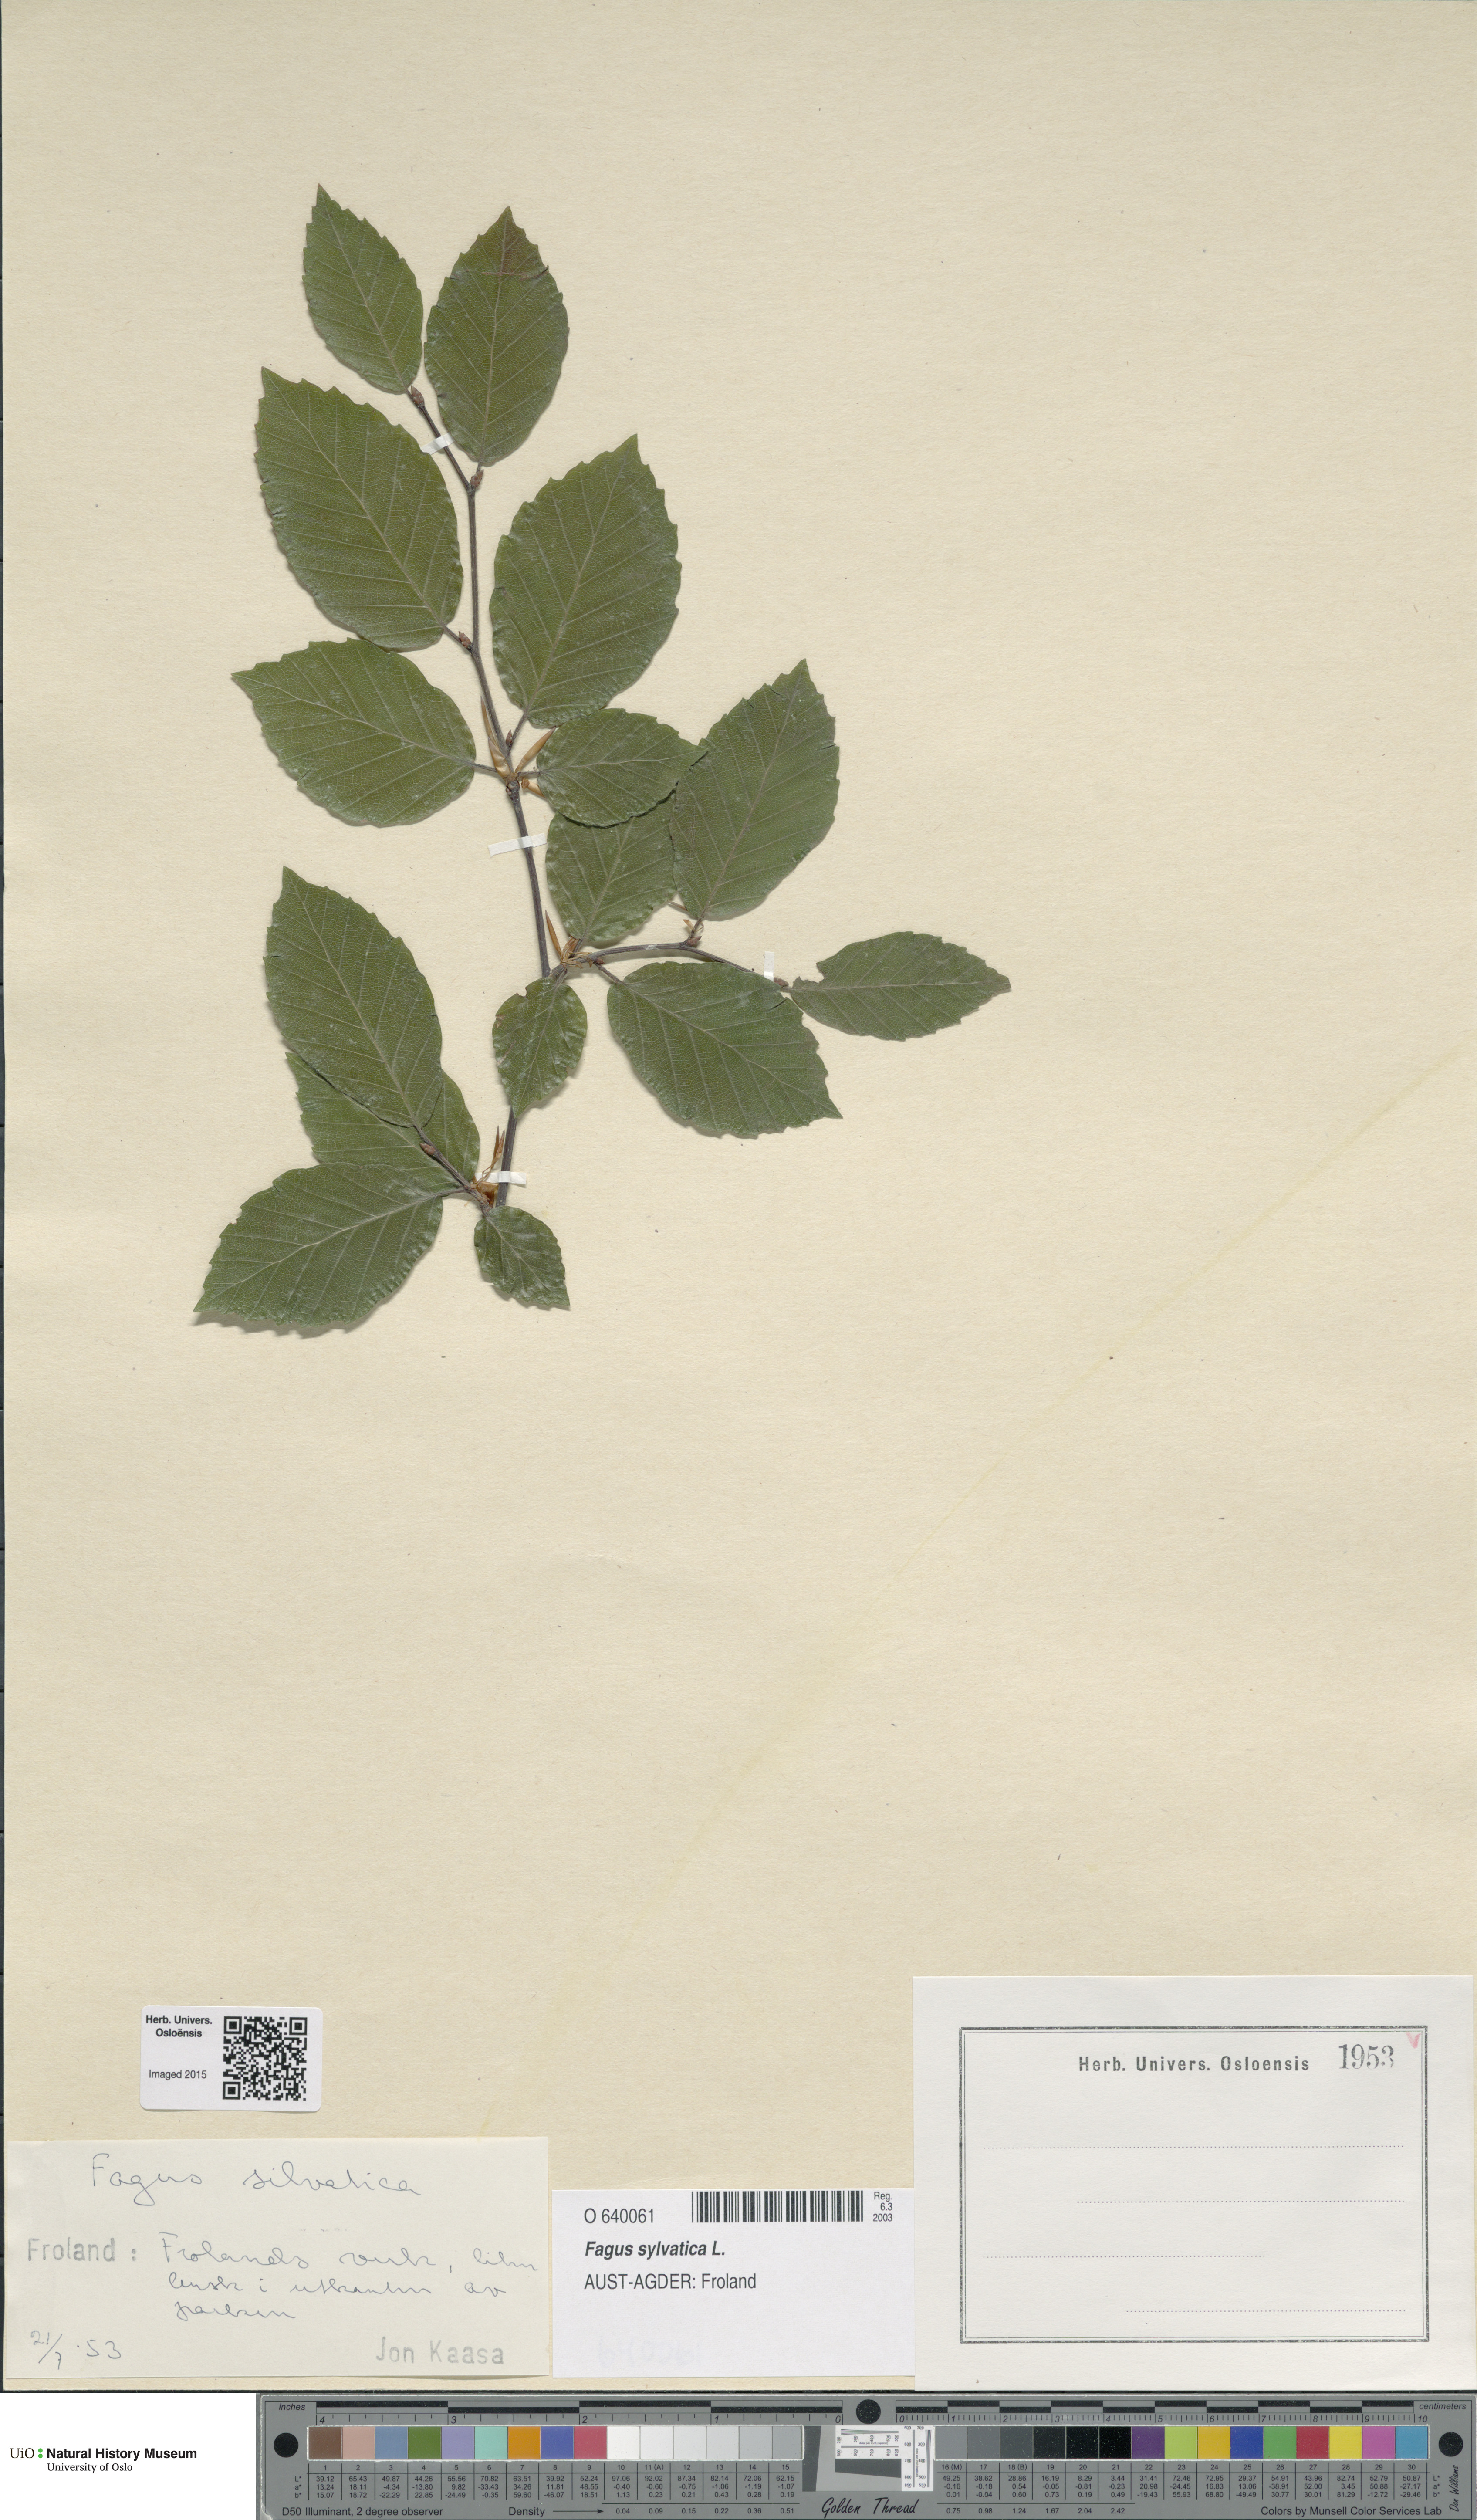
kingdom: Plantae
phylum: Tracheophyta
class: Magnoliopsida
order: Fagales
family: Fagaceae
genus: Fagus
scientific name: Fagus sylvatica
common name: Beech
